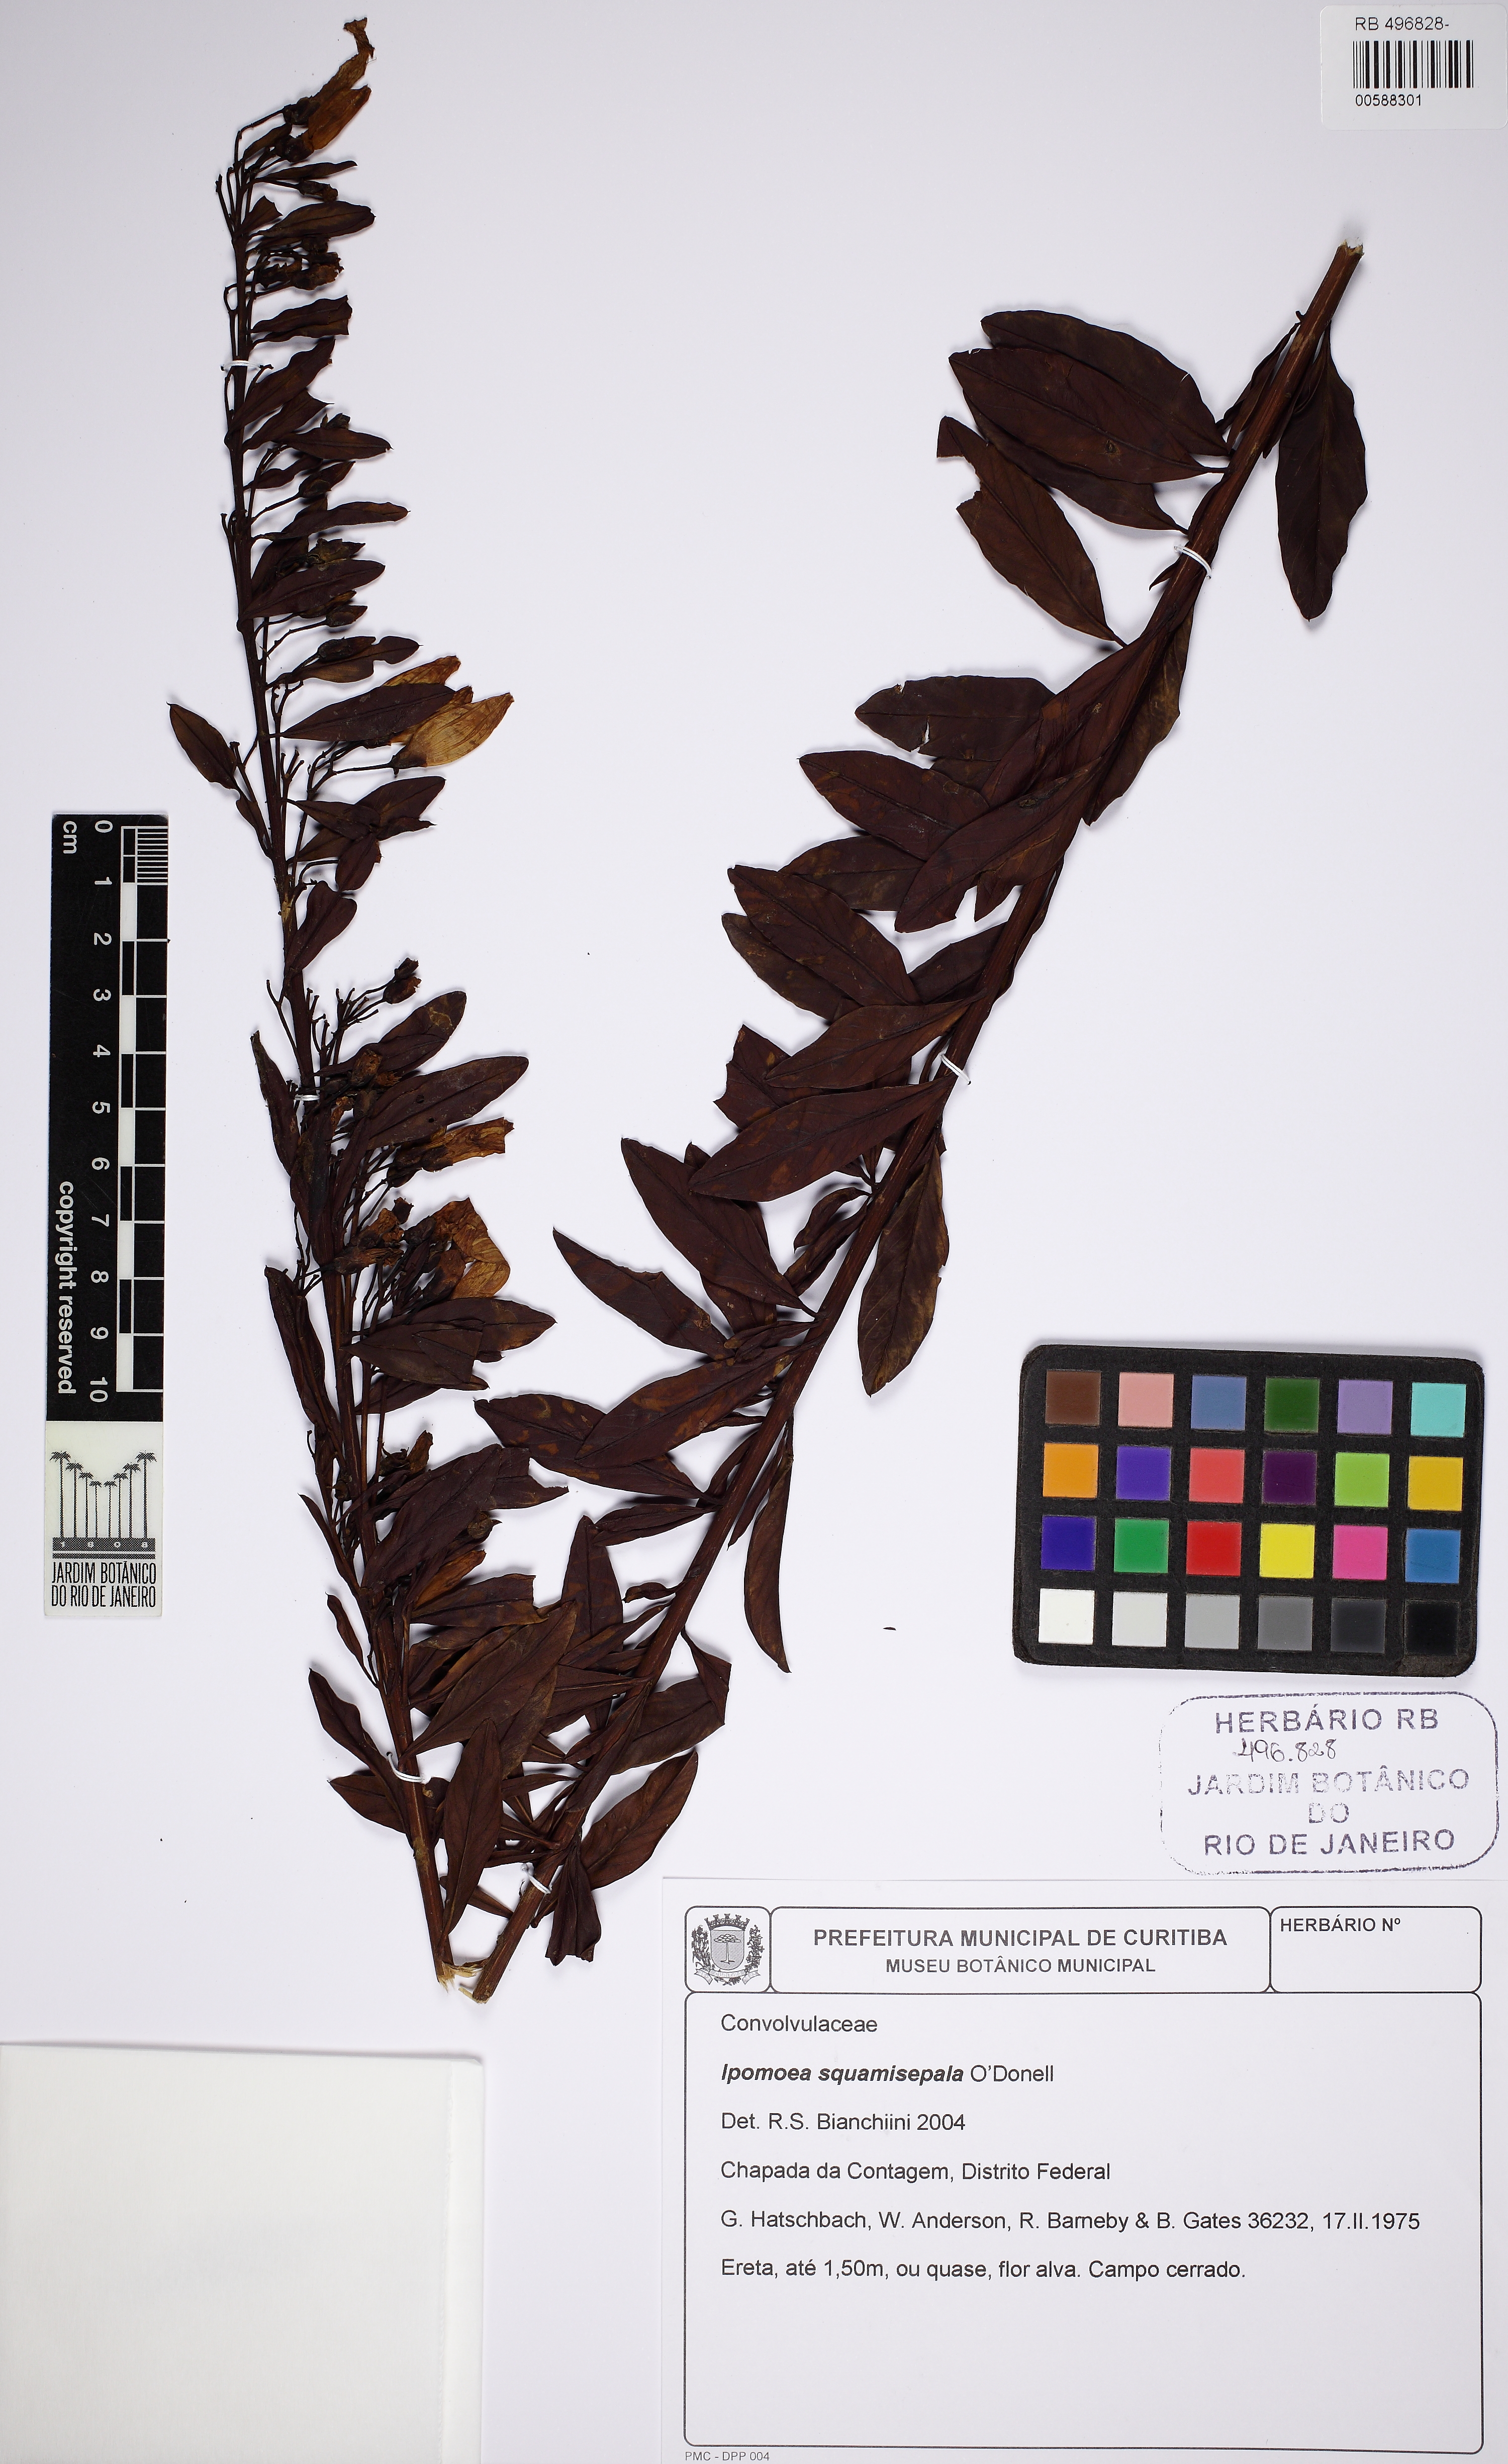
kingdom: Plantae
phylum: Tracheophyta
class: Magnoliopsida
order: Solanales
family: Convolvulaceae
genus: Ipomoea
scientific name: Ipomoea squamisepala
